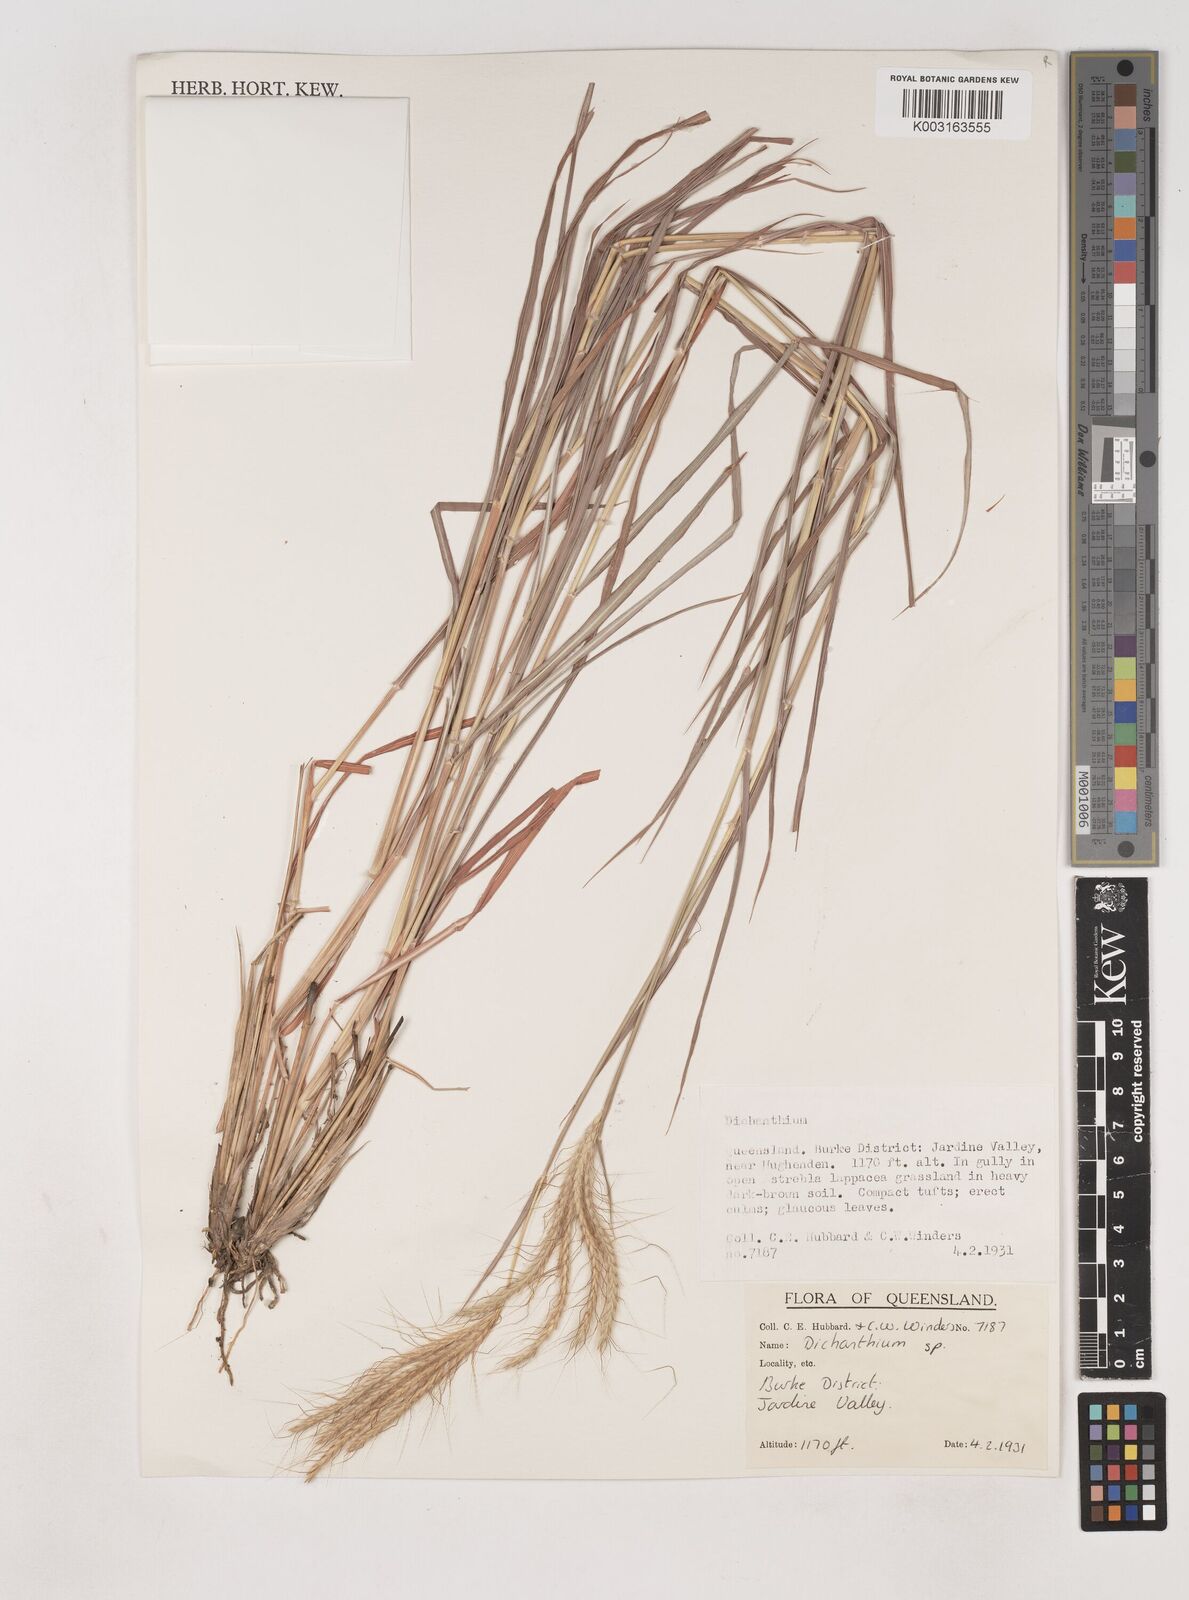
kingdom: Plantae
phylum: Tracheophyta
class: Liliopsida
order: Poales
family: Poaceae
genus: Dichanthium
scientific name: Dichanthium
